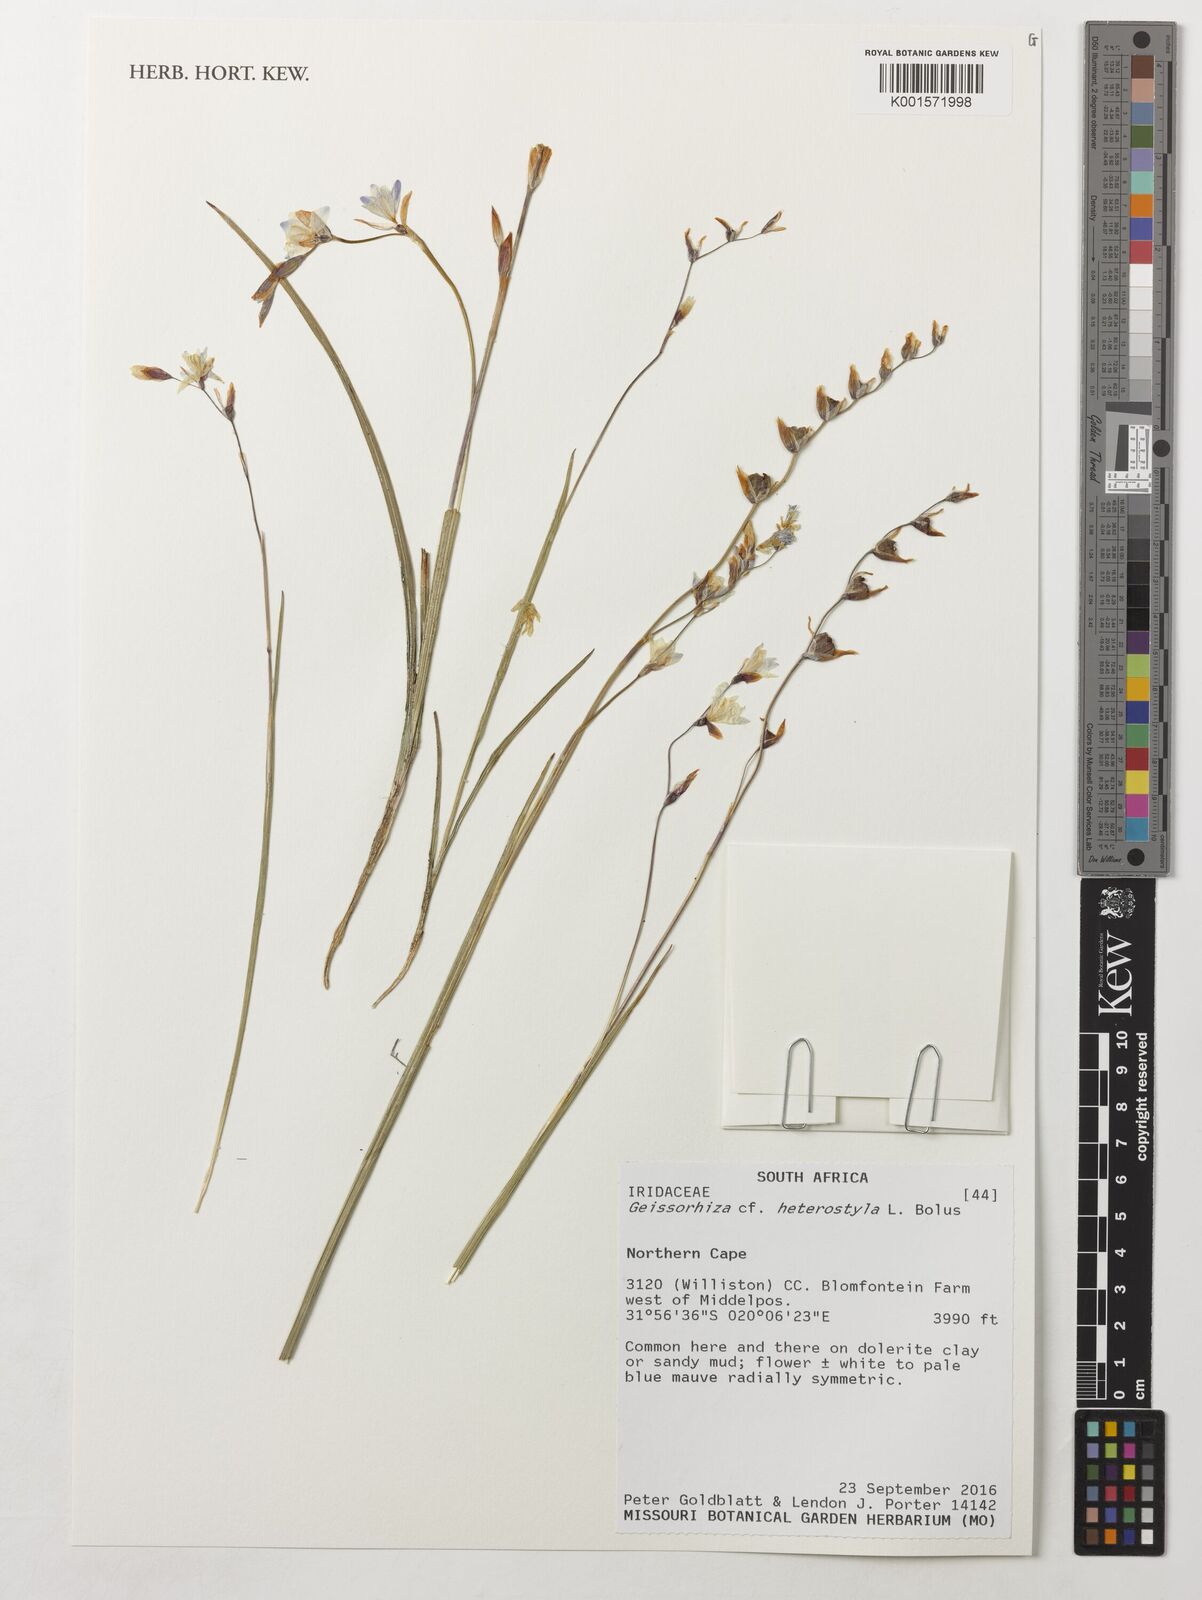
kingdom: Plantae
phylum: Tracheophyta
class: Liliopsida
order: Asparagales
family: Iridaceae
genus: Geissorhiza
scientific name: Geissorhiza heterostyla
